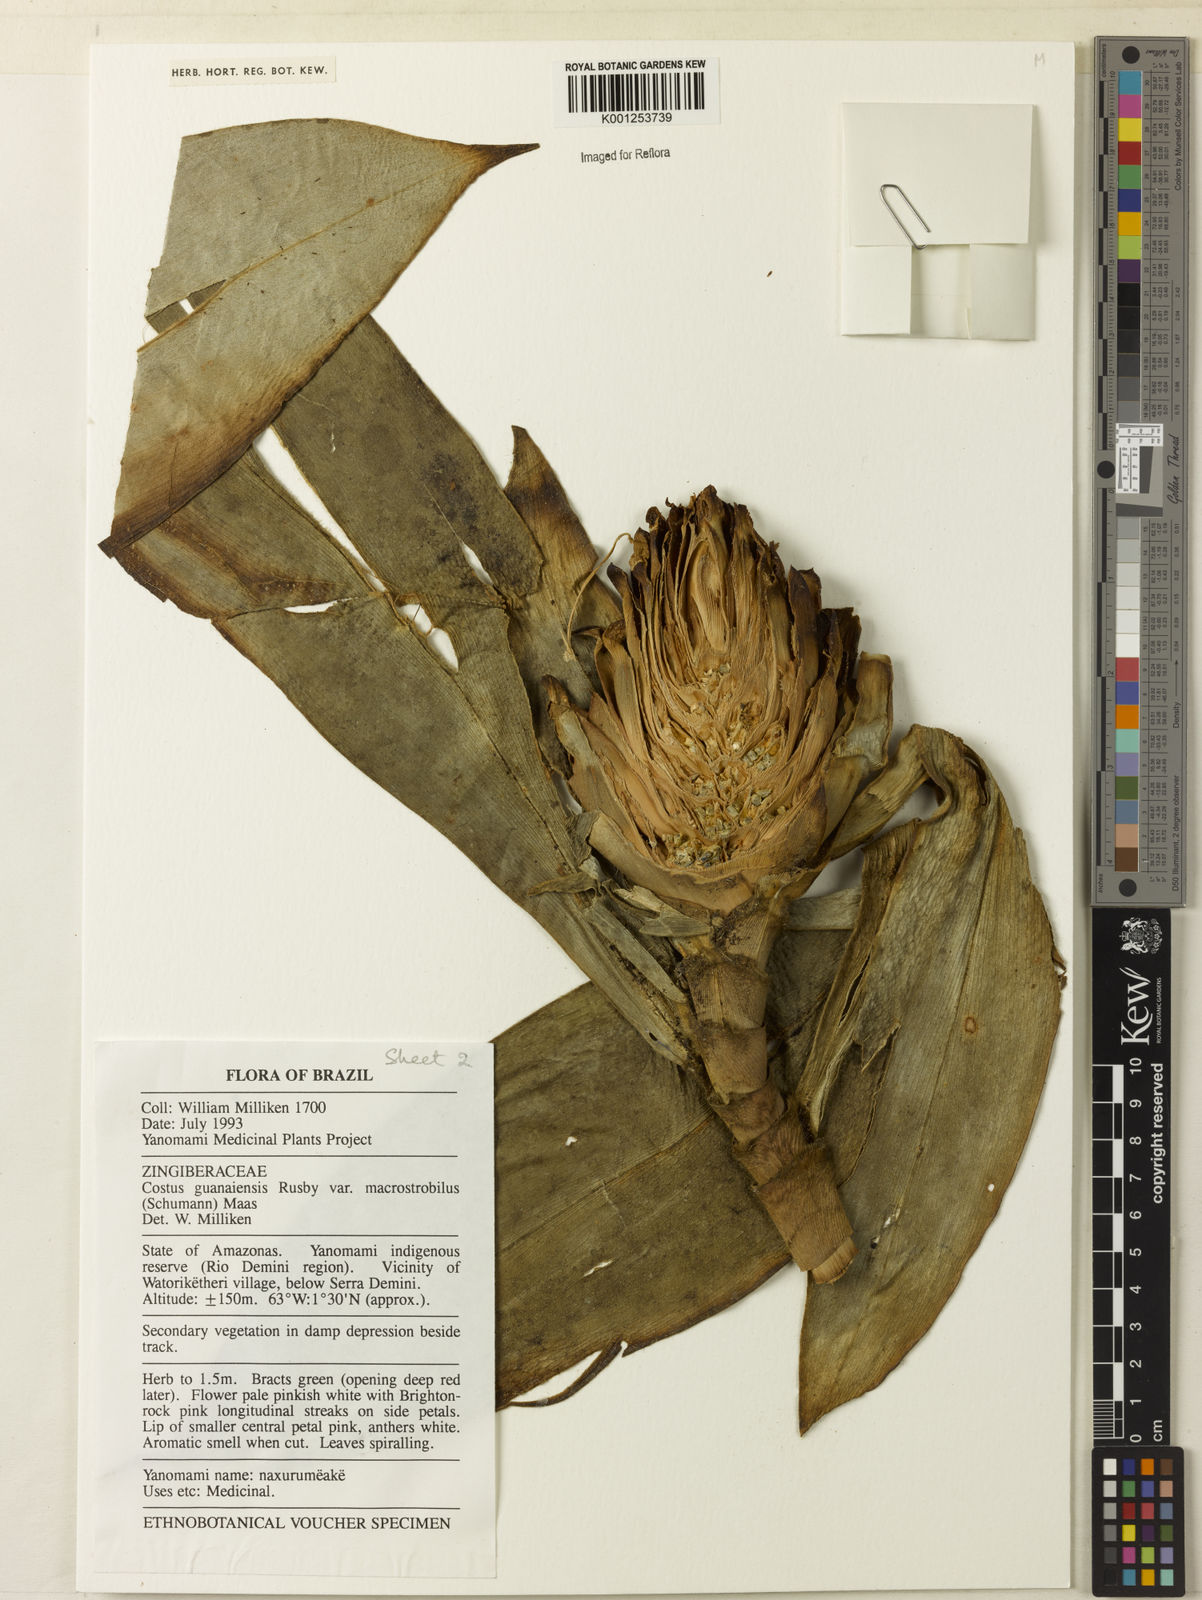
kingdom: Plantae
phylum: Tracheophyta
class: Liliopsida
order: Zingiberales
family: Costaceae
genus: Costus
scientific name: Costus guanaiensis
